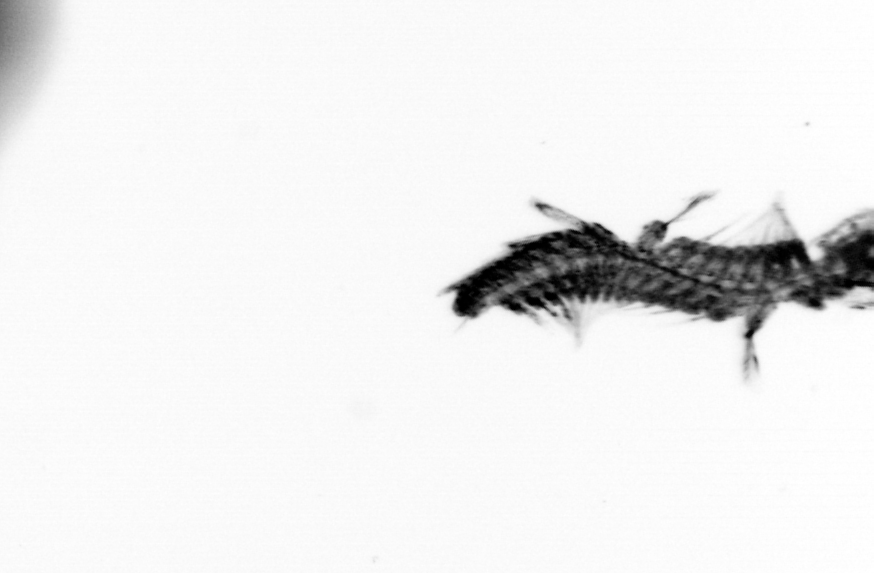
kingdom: Animalia
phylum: Annelida
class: Polychaeta
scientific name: Polychaeta
